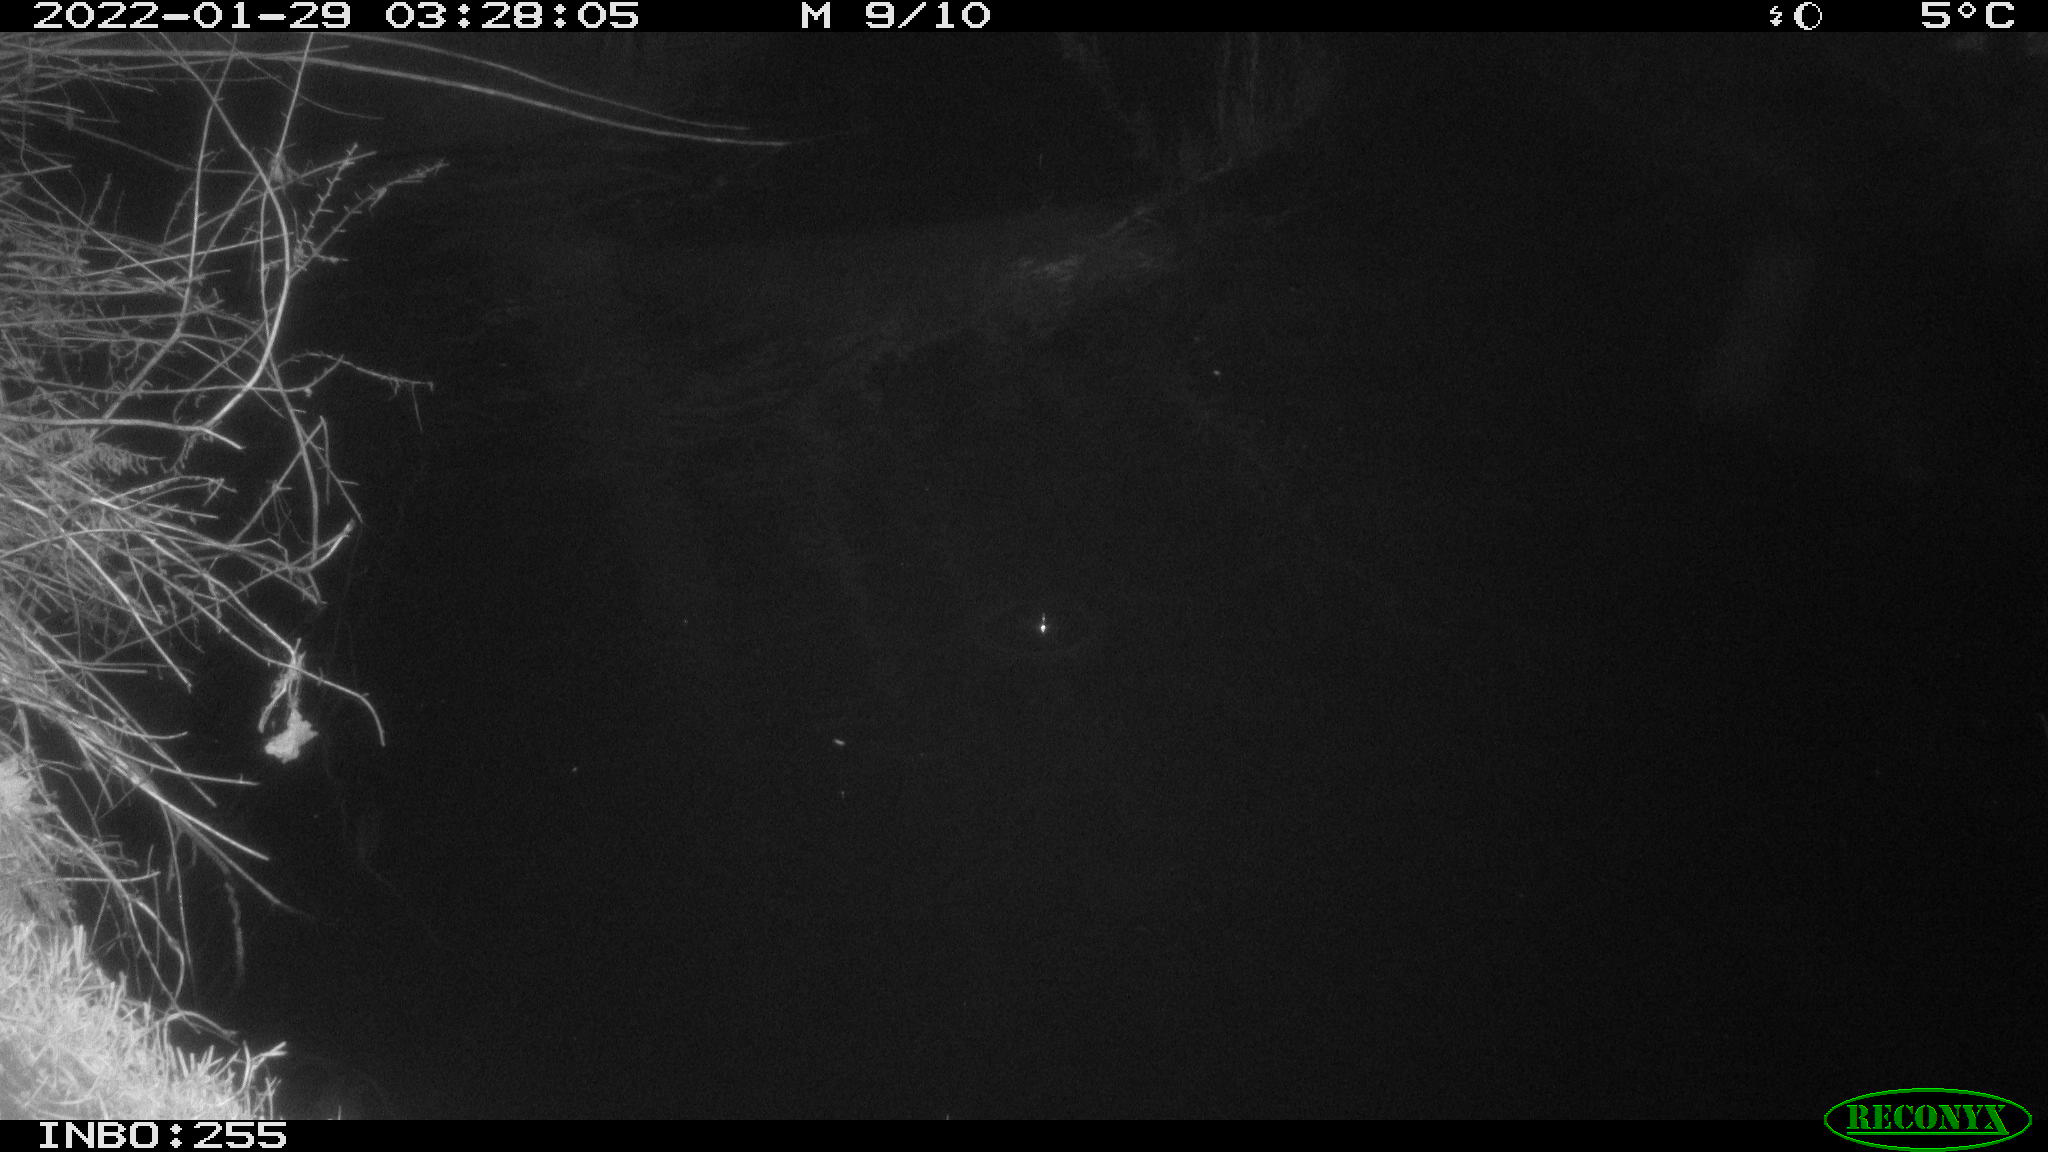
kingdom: Animalia
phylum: Chordata
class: Mammalia
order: Rodentia
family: Muridae
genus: Rattus
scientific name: Rattus norvegicus
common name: Brown rat
